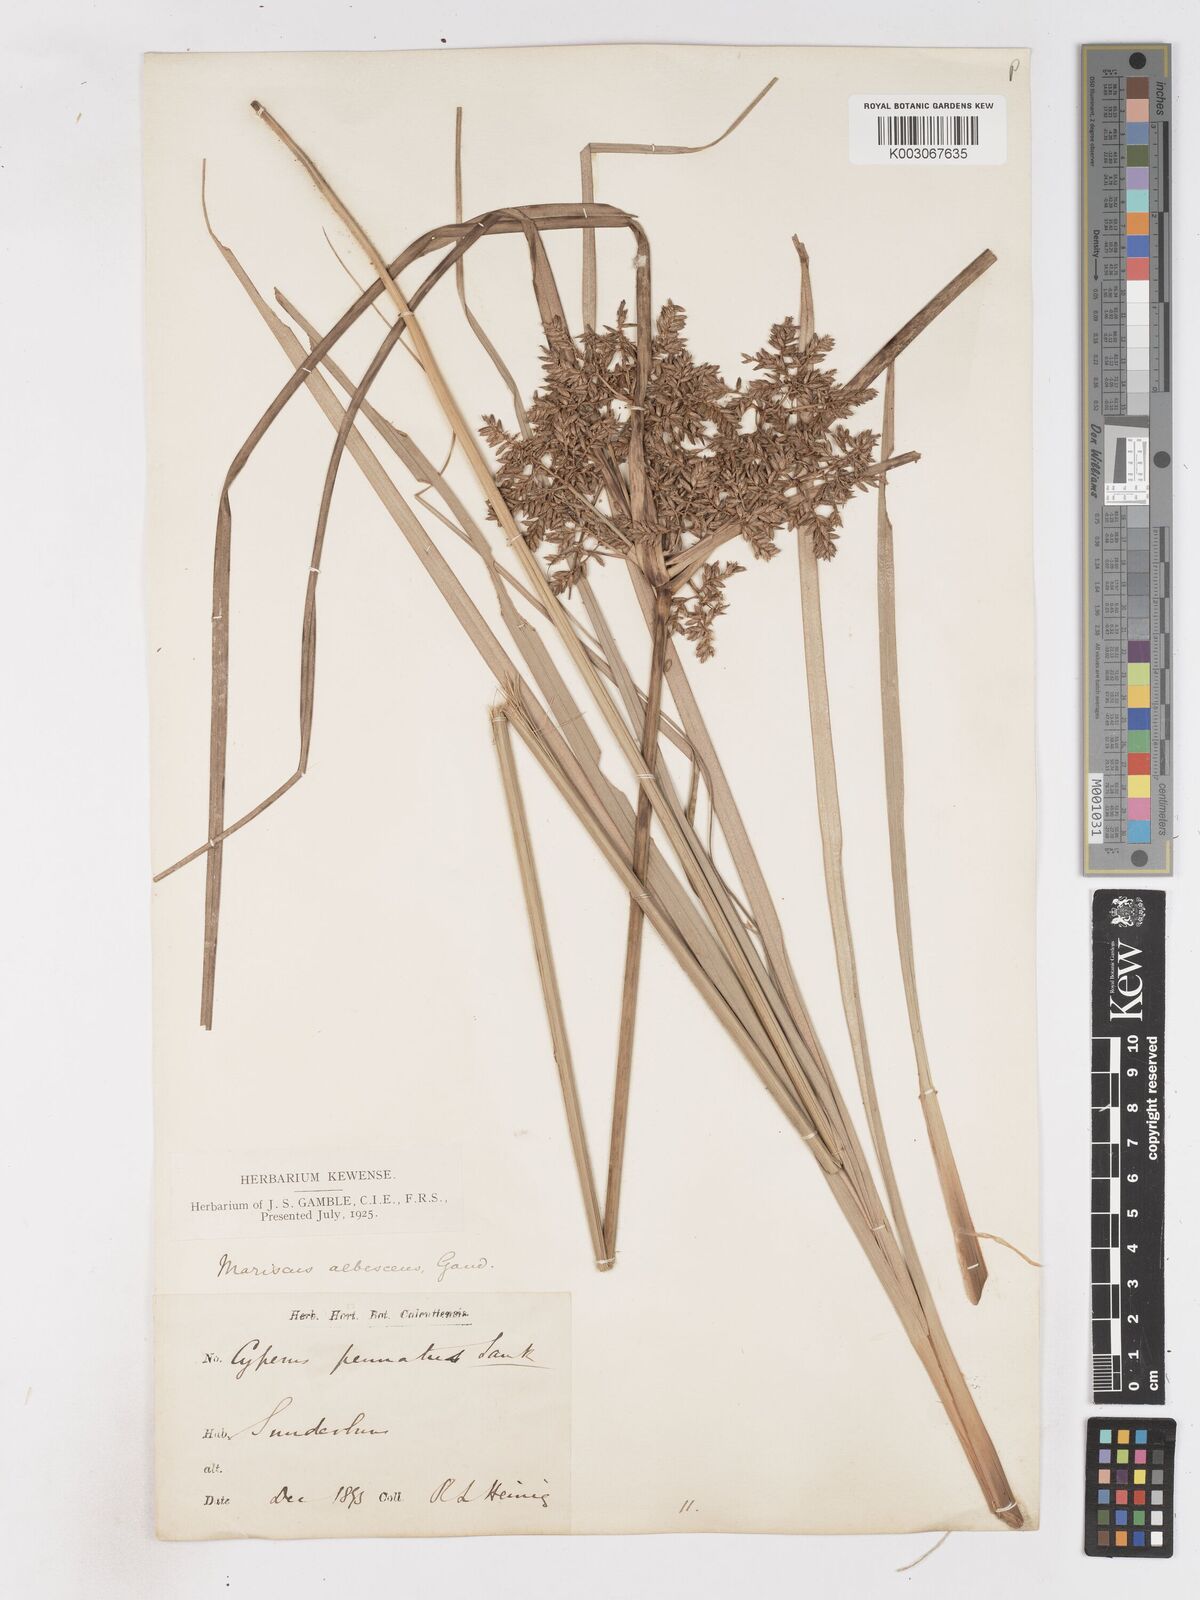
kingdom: Plantae
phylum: Tracheophyta
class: Liliopsida
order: Poales
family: Cyperaceae
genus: Cyperus
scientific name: Cyperus javanicus
